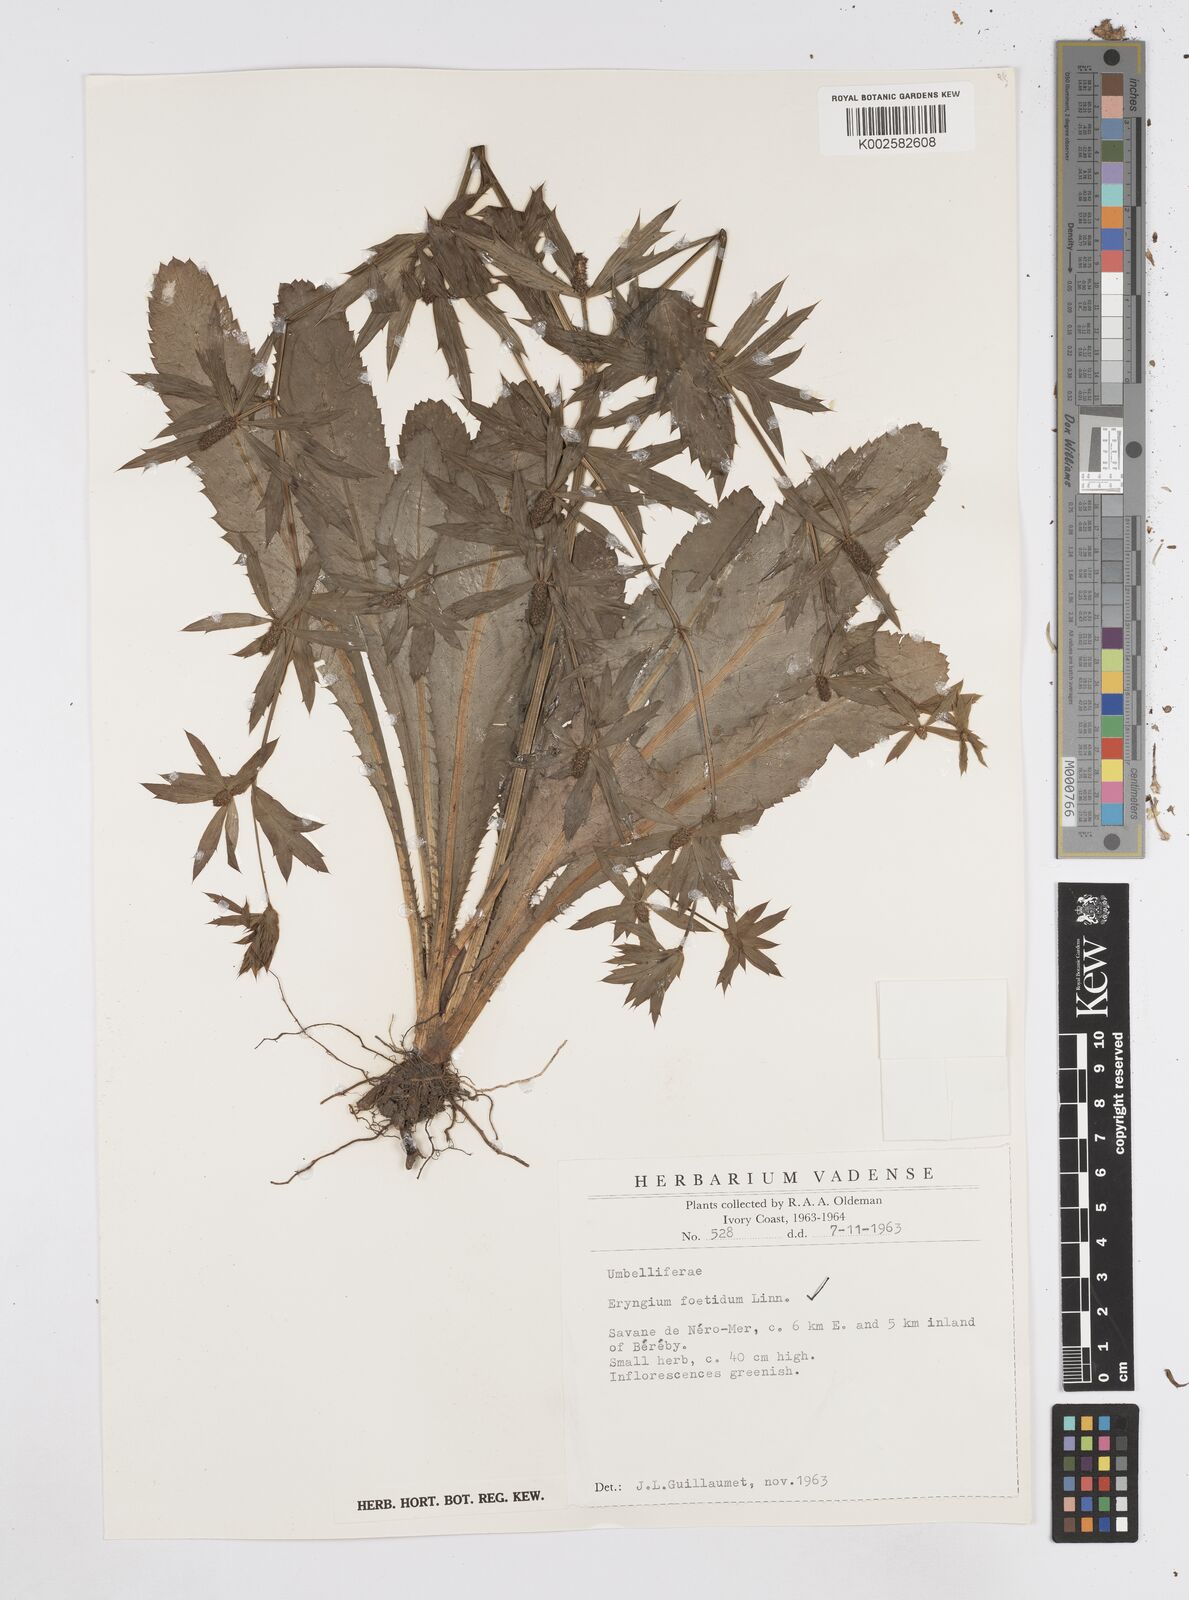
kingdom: Plantae
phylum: Tracheophyta
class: Magnoliopsida
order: Apiales
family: Apiaceae
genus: Eryngium
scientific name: Eryngium foetidum
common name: Fitweed
